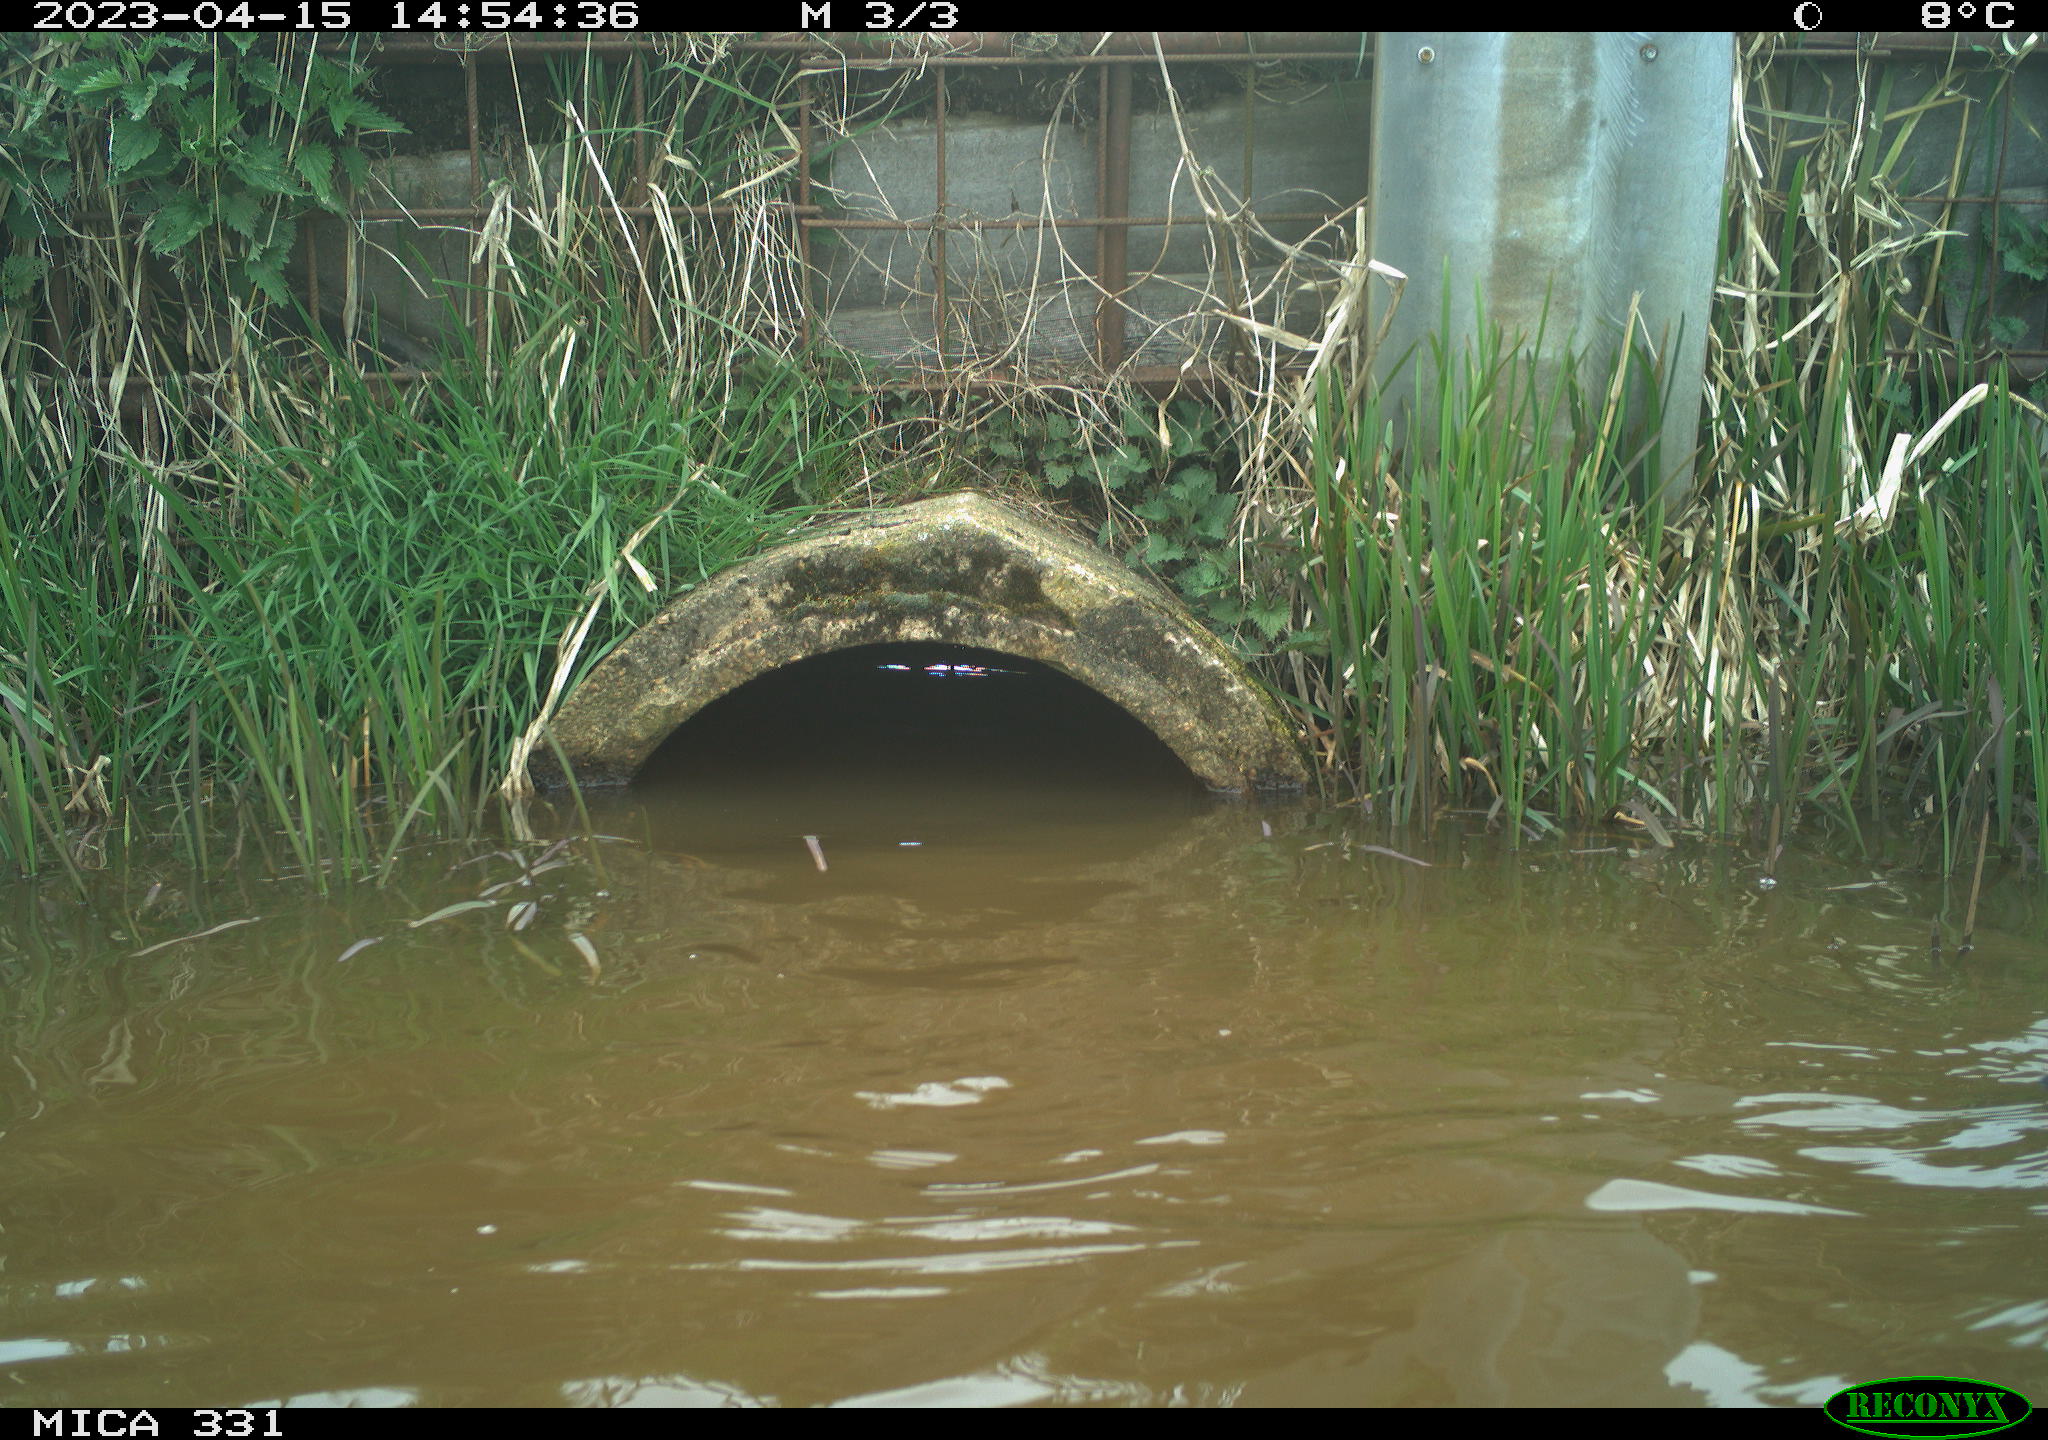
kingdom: Animalia
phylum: Chordata
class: Aves
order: Gruiformes
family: Rallidae
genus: Fulica
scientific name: Fulica atra
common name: Eurasian coot
